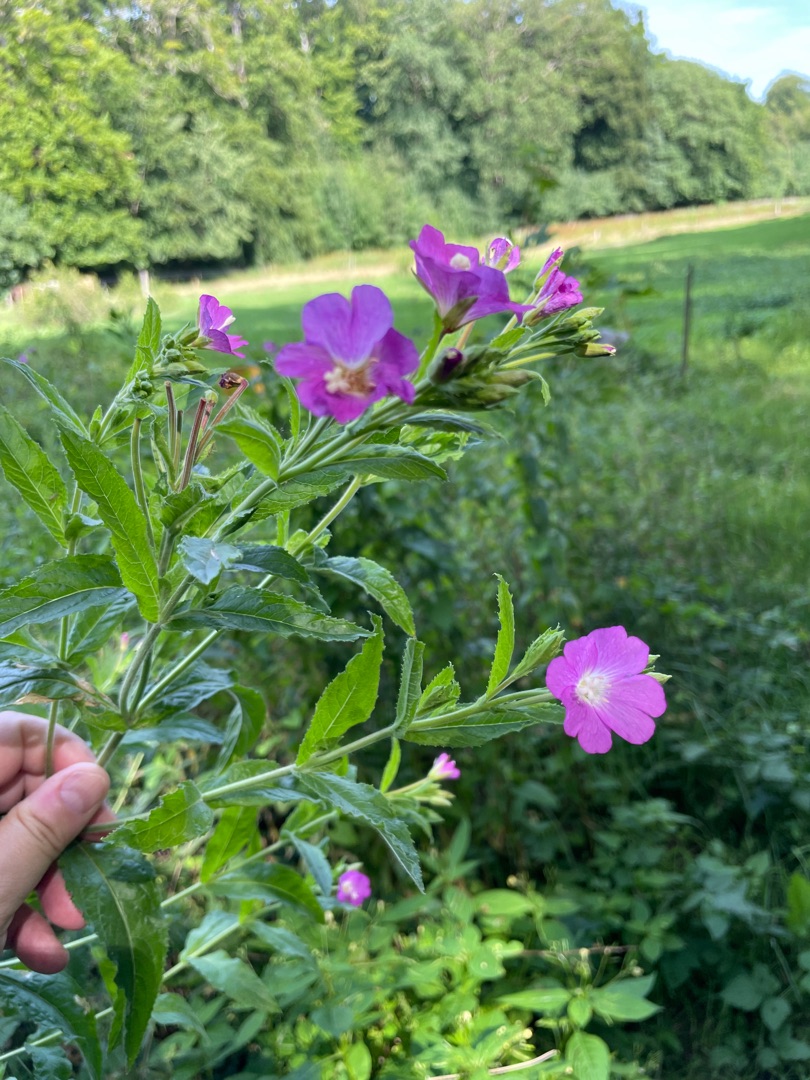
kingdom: Plantae
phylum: Tracheophyta
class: Magnoliopsida
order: Myrtales
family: Onagraceae
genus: Epilobium
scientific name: Epilobium hirsutum
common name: Lådden dueurt
